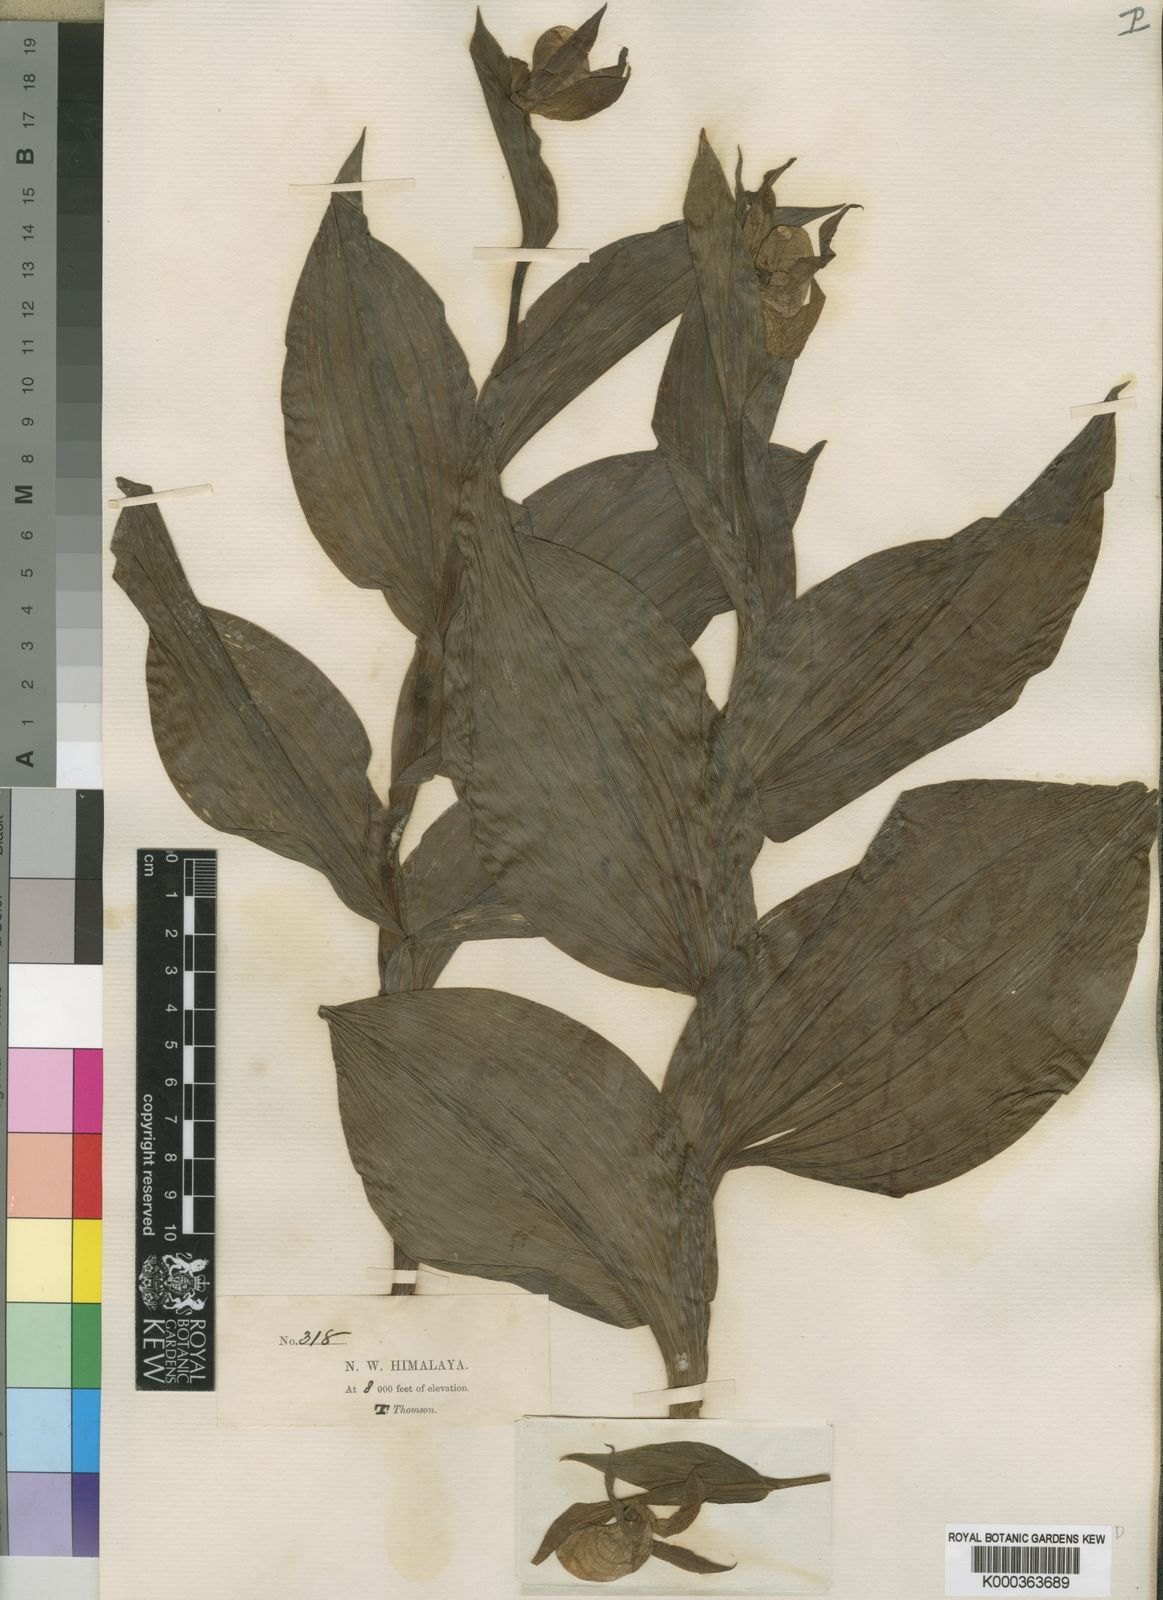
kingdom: Plantae
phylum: Tracheophyta
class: Liliopsida
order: Asparagales
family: Orchidaceae
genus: Cypripedium
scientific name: Cypripedium
